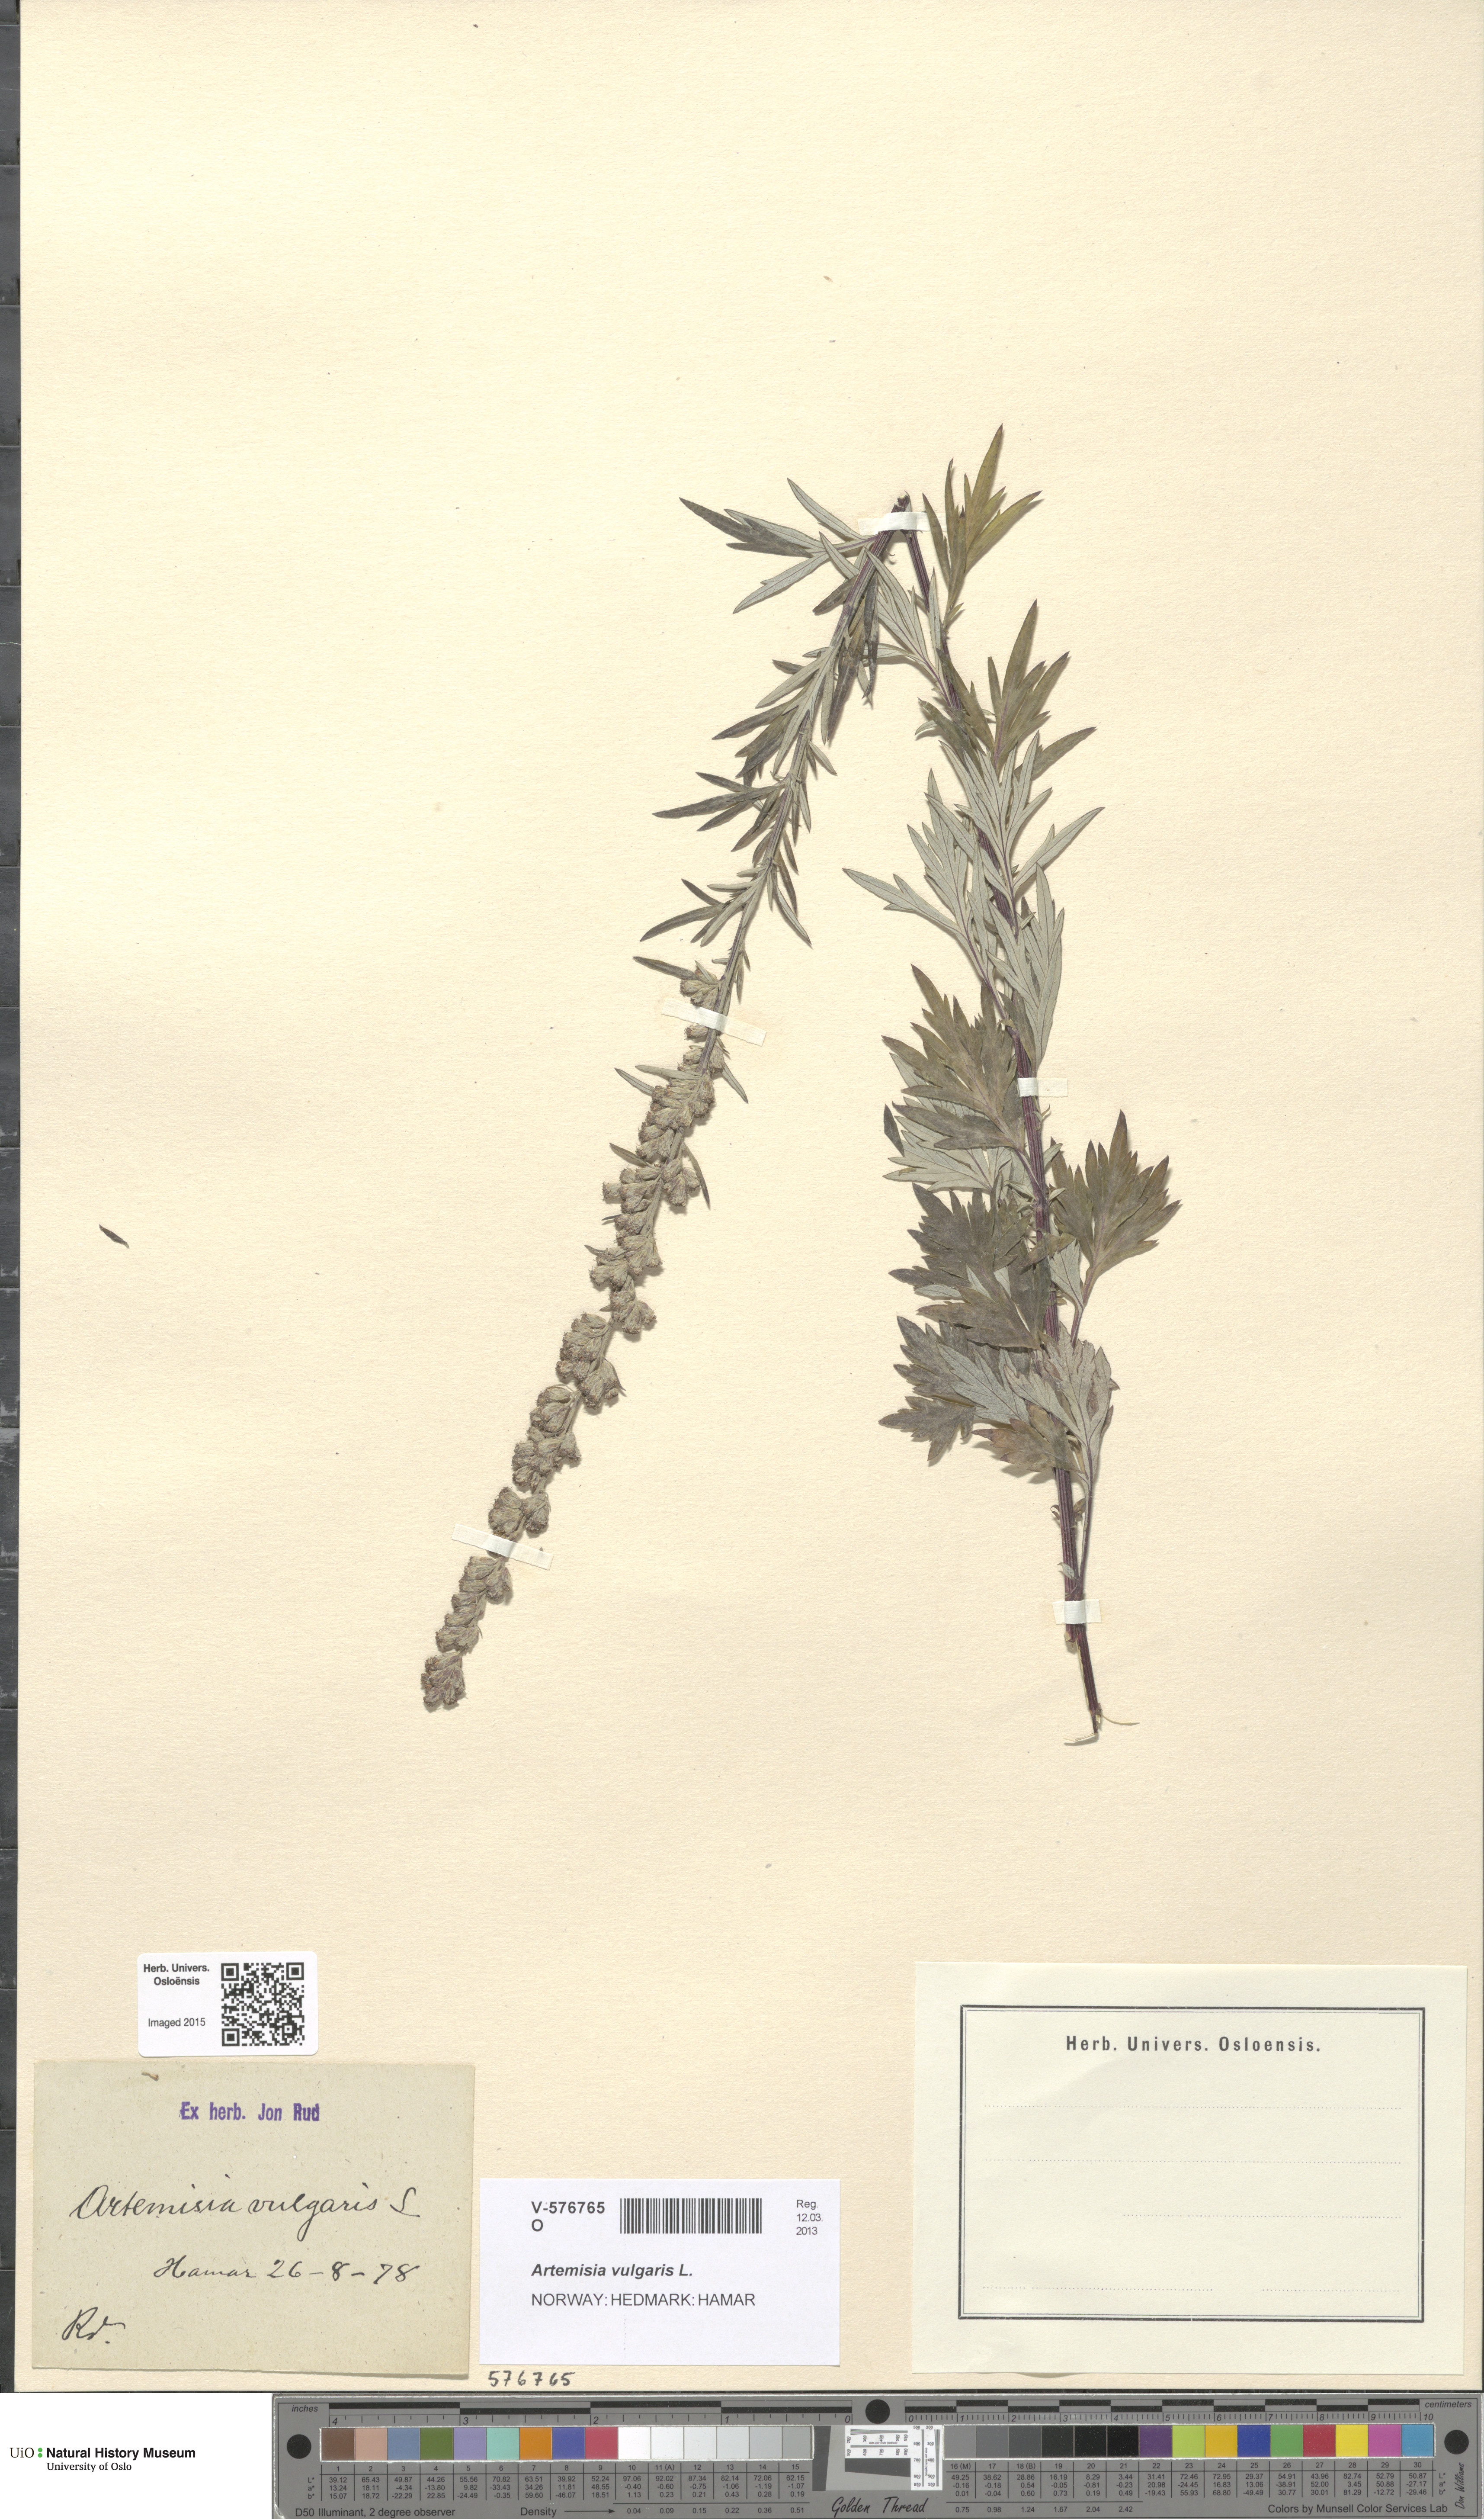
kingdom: Plantae
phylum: Tracheophyta
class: Magnoliopsida
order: Asterales
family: Asteraceae
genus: Artemisia
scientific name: Artemisia vulgaris
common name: Mugwort
